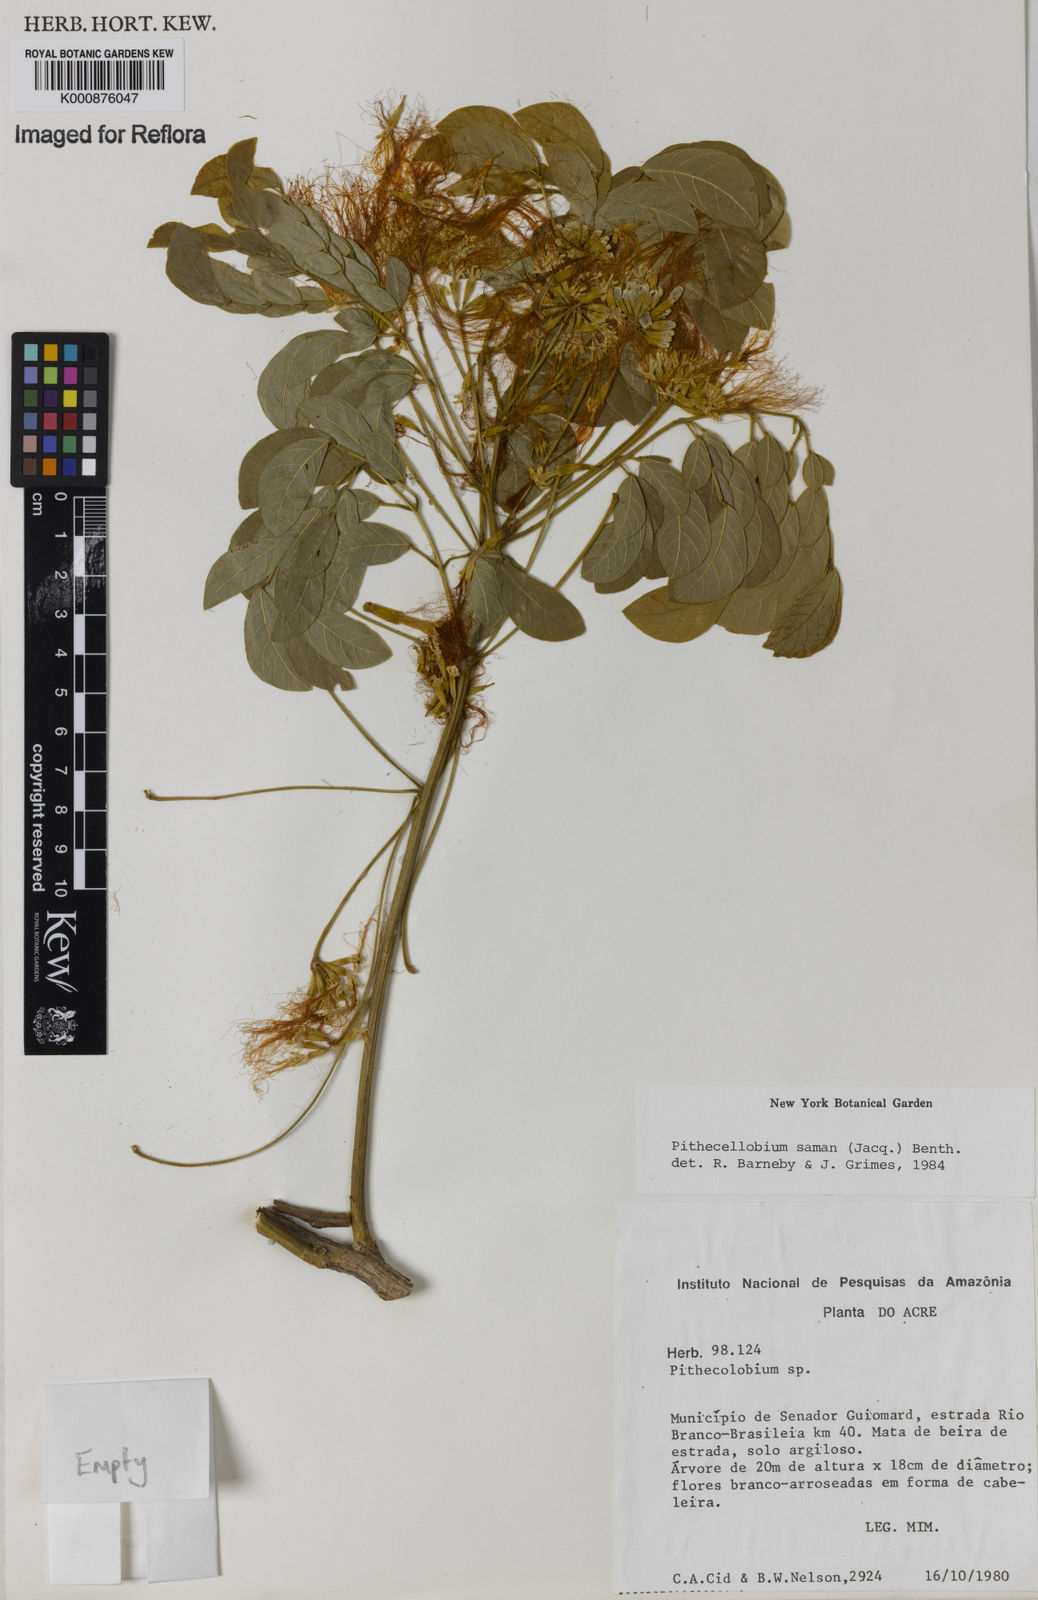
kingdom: Plantae
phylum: Tracheophyta
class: Magnoliopsida
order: Fabales
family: Fabaceae
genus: Samanea
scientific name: Samanea saman
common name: Raintree
